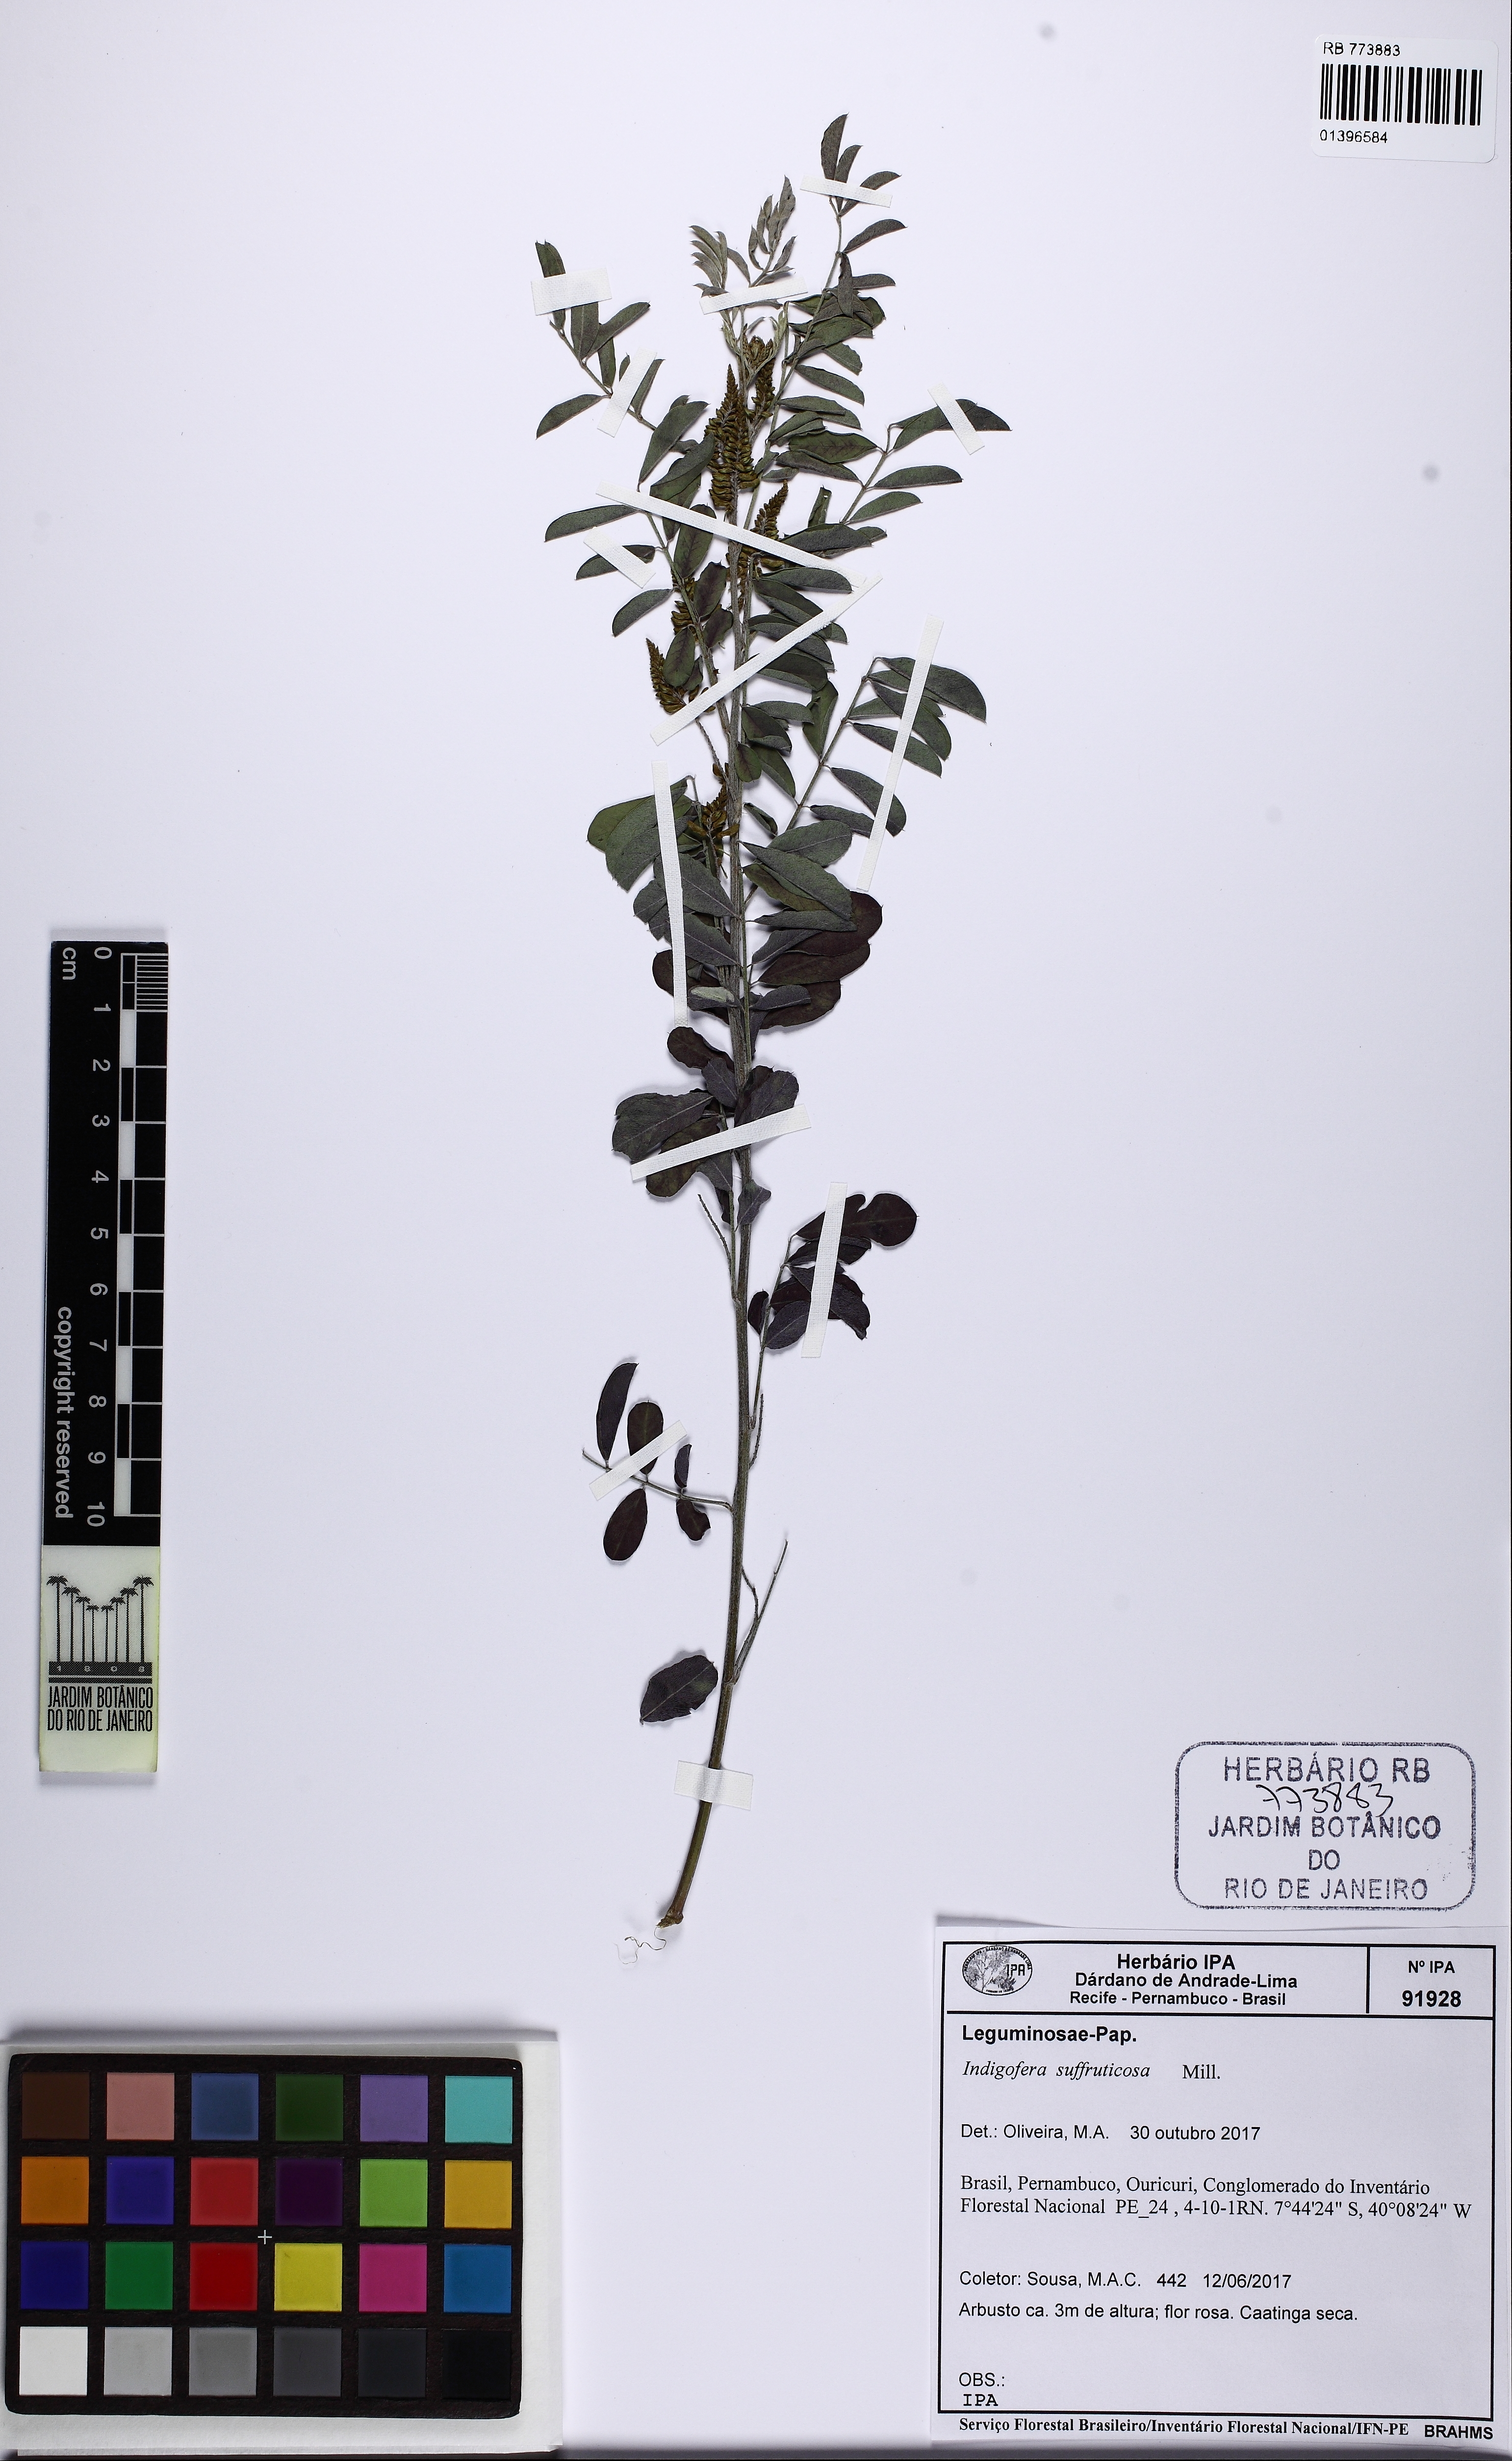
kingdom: Plantae
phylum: Tracheophyta
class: Magnoliopsida
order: Fabales
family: Fabaceae
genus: Indigofera
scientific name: Indigofera suffruticosa
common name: Anil de pasto
